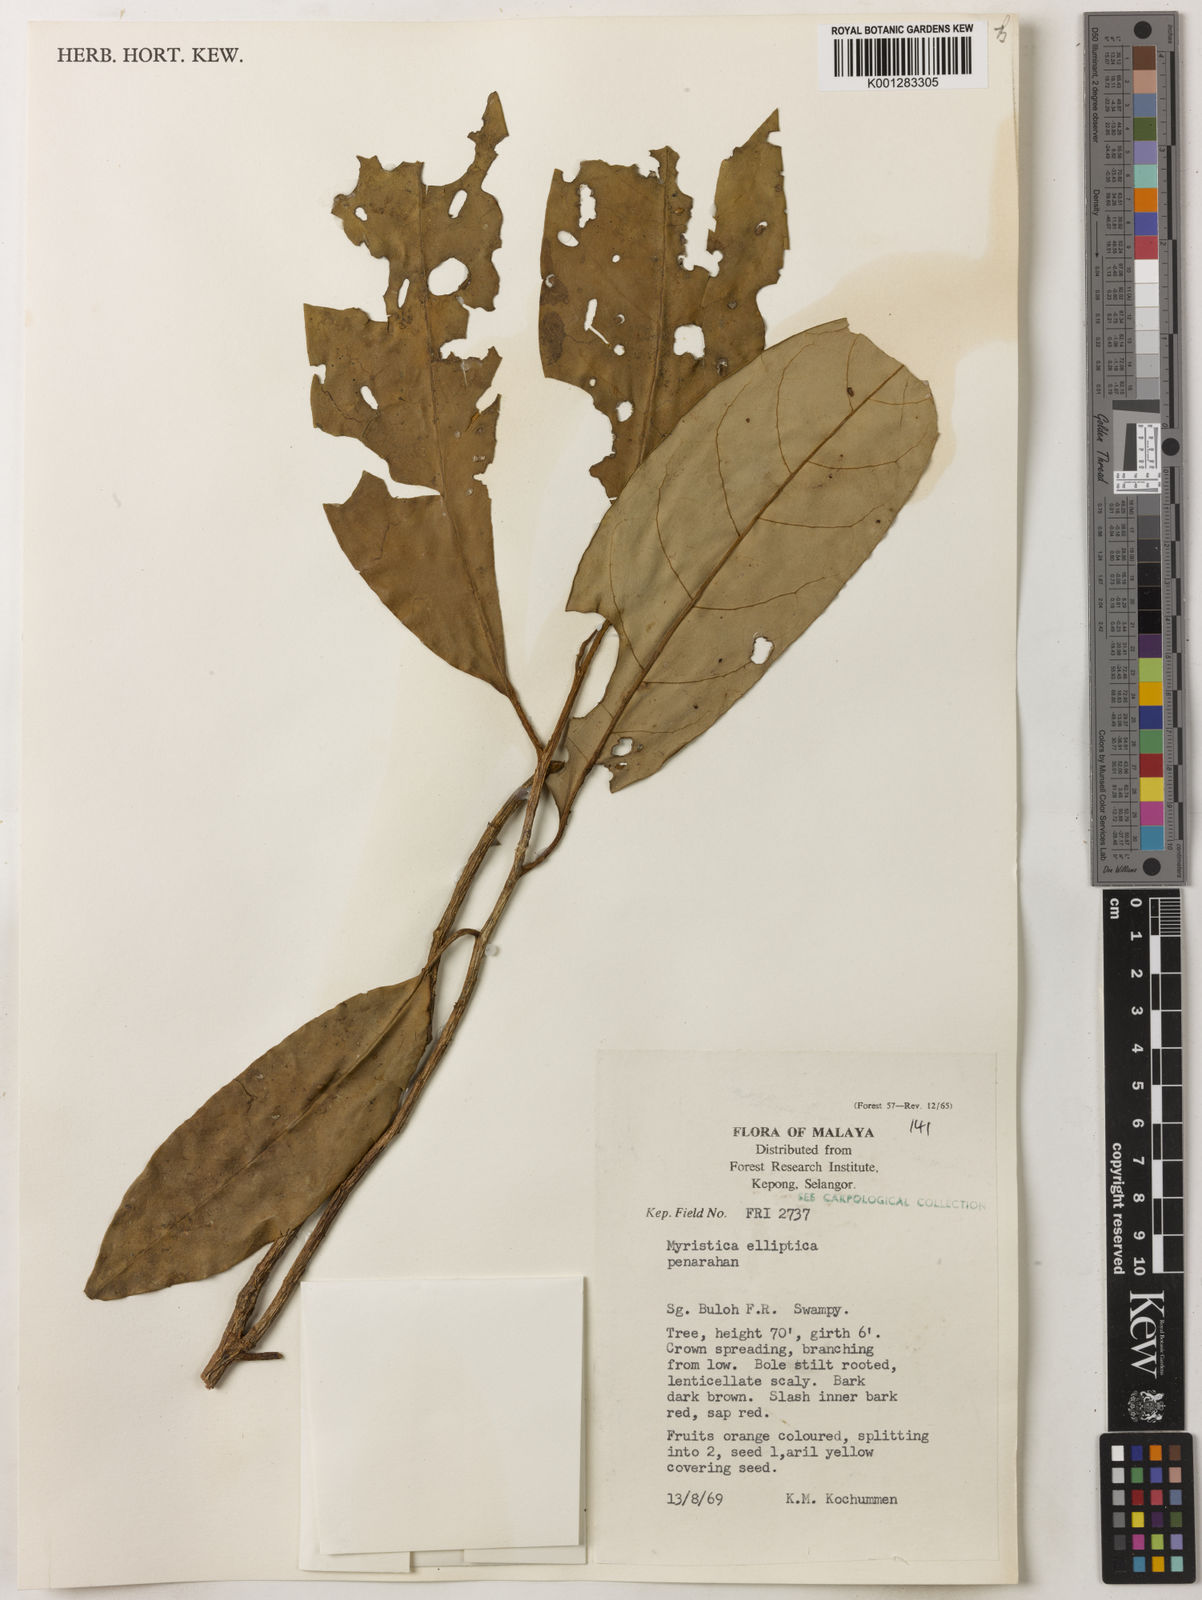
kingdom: Plantae
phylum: Tracheophyta
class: Magnoliopsida
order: Magnoliales
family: Myristicaceae
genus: Myristica
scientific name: Myristica elliptica
